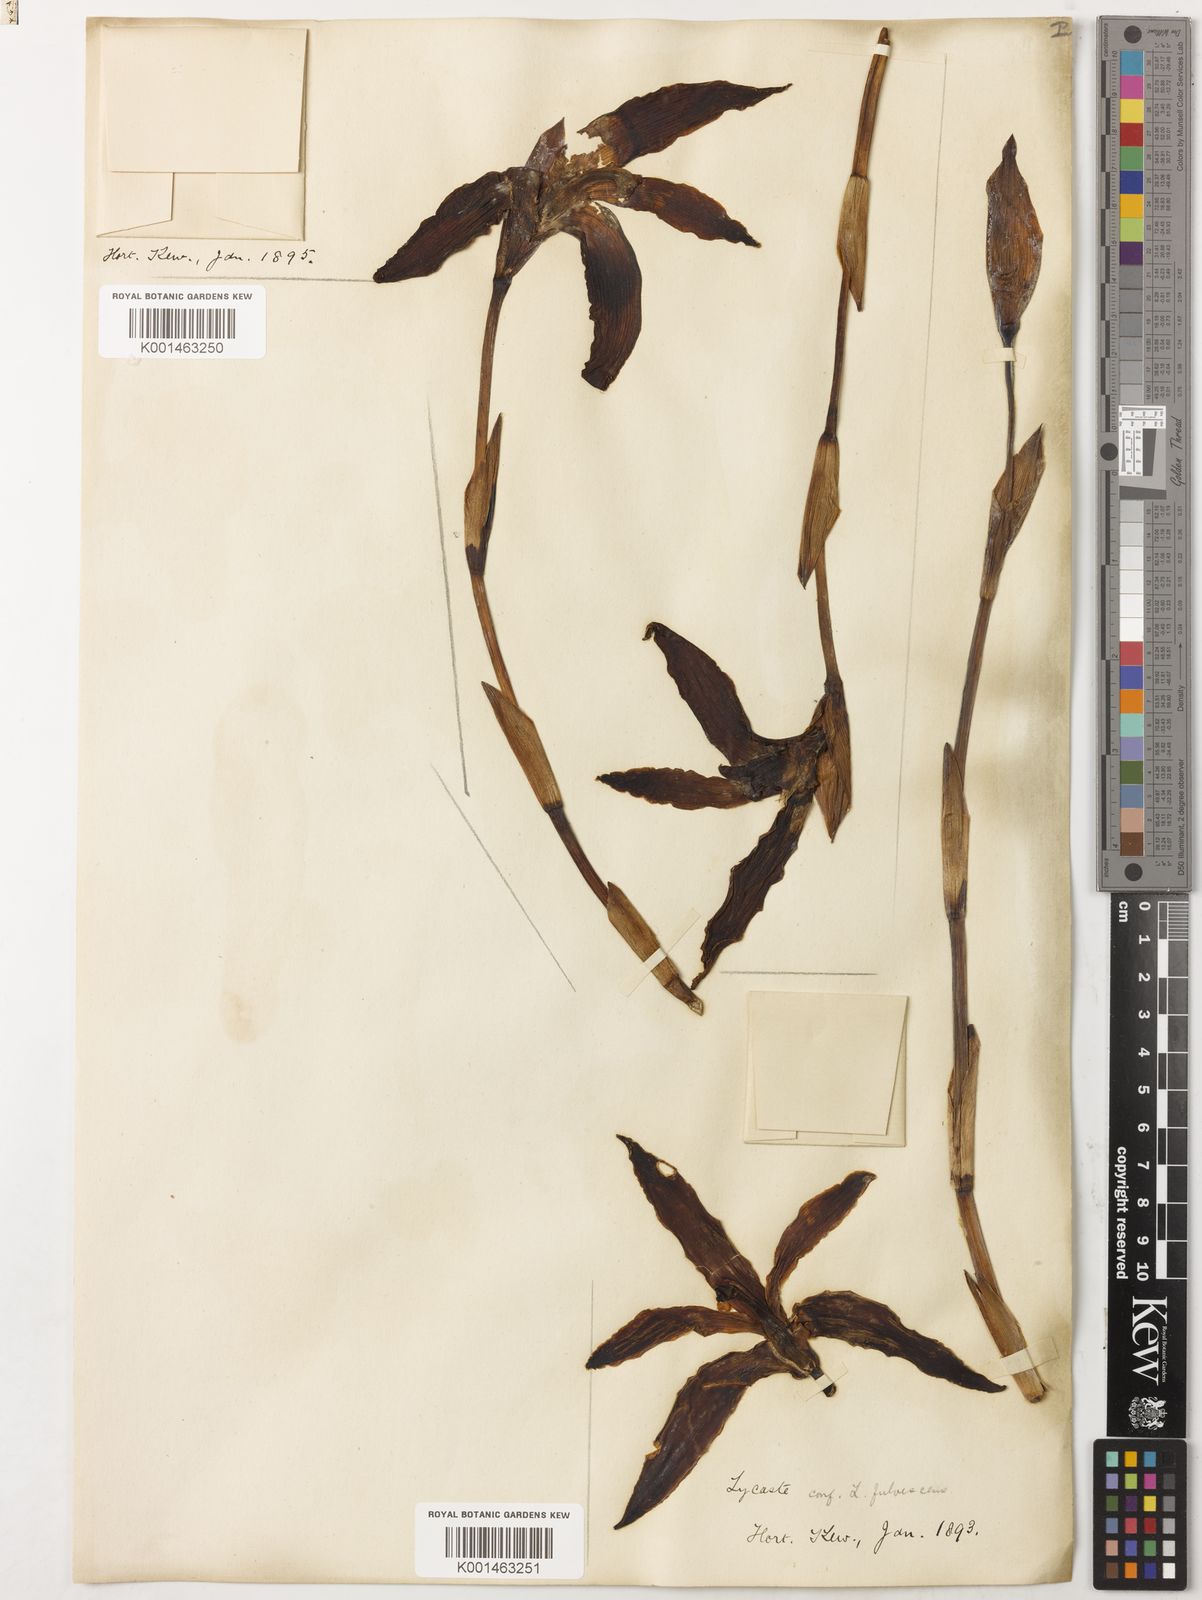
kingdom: Plantae
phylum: Tracheophyta
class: Liliopsida
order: Asparagales
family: Orchidaceae
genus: Ida
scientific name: Ida fulvescens
